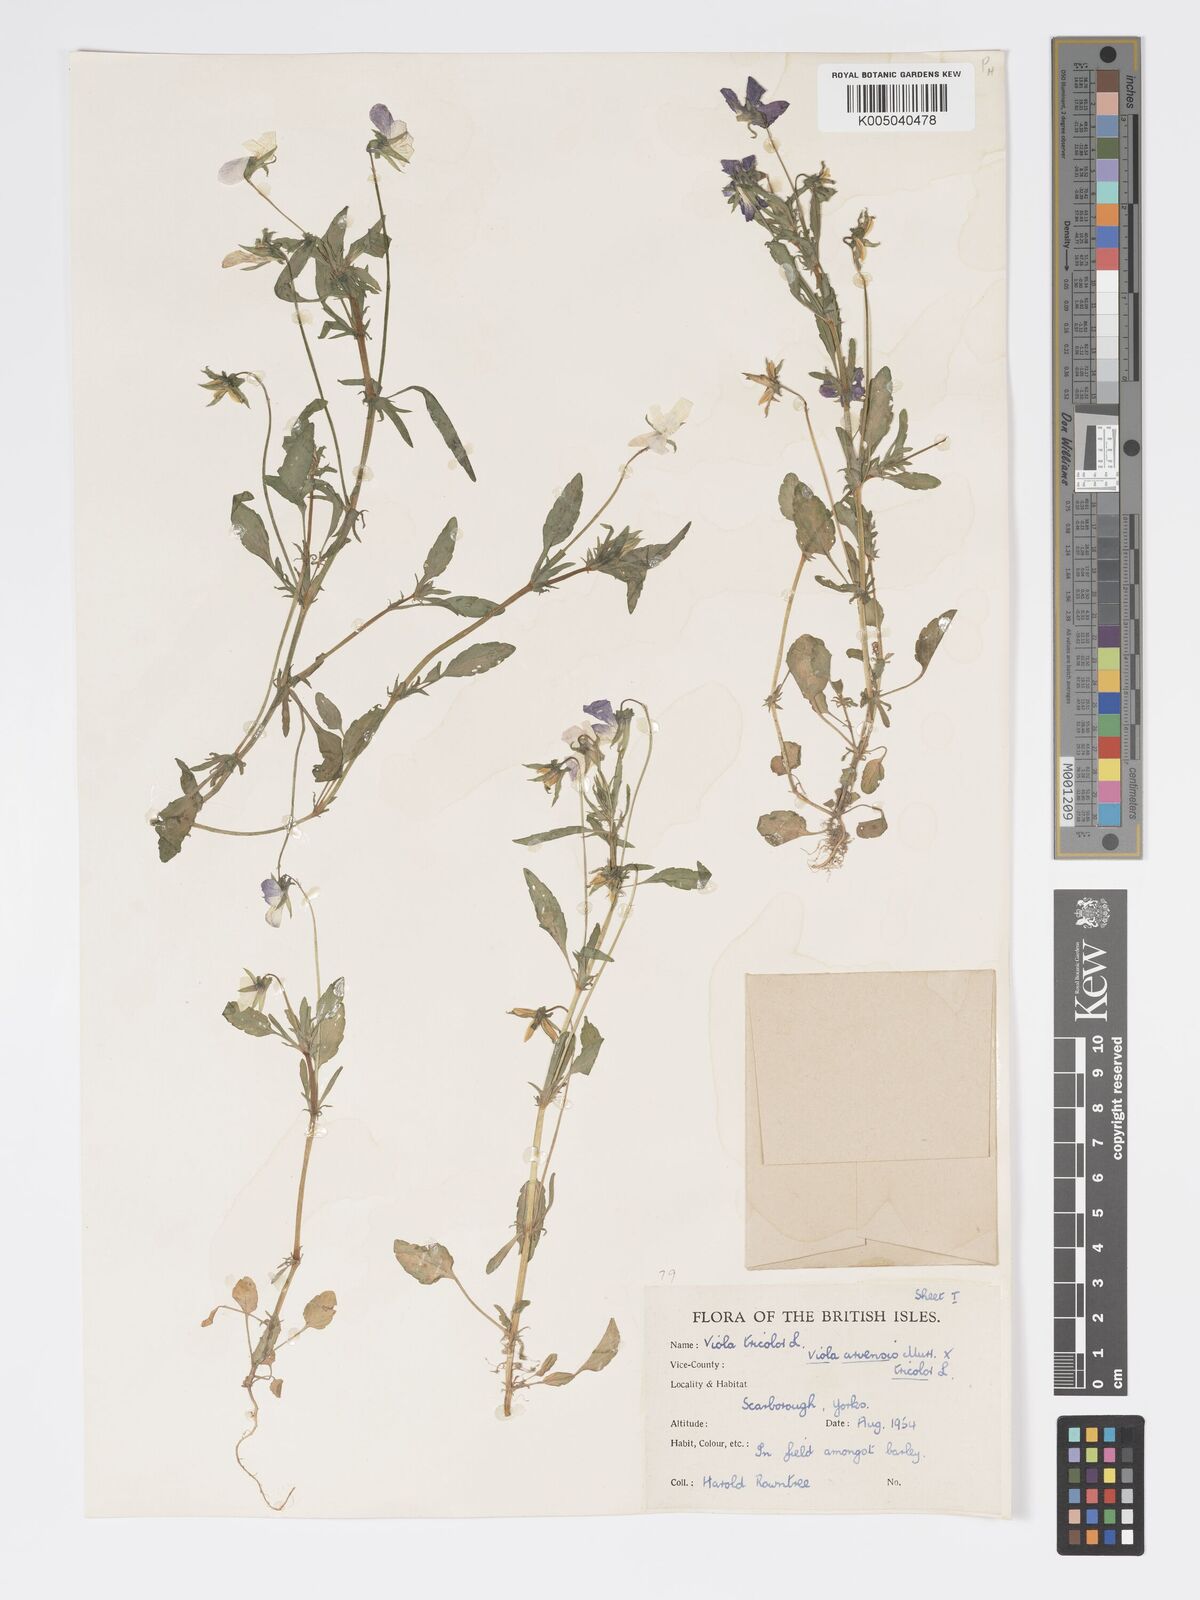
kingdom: Plantae
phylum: Tracheophyta
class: Magnoliopsida
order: Malpighiales
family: Violaceae
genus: Viola
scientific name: Viola arvensis
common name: Field pansy
